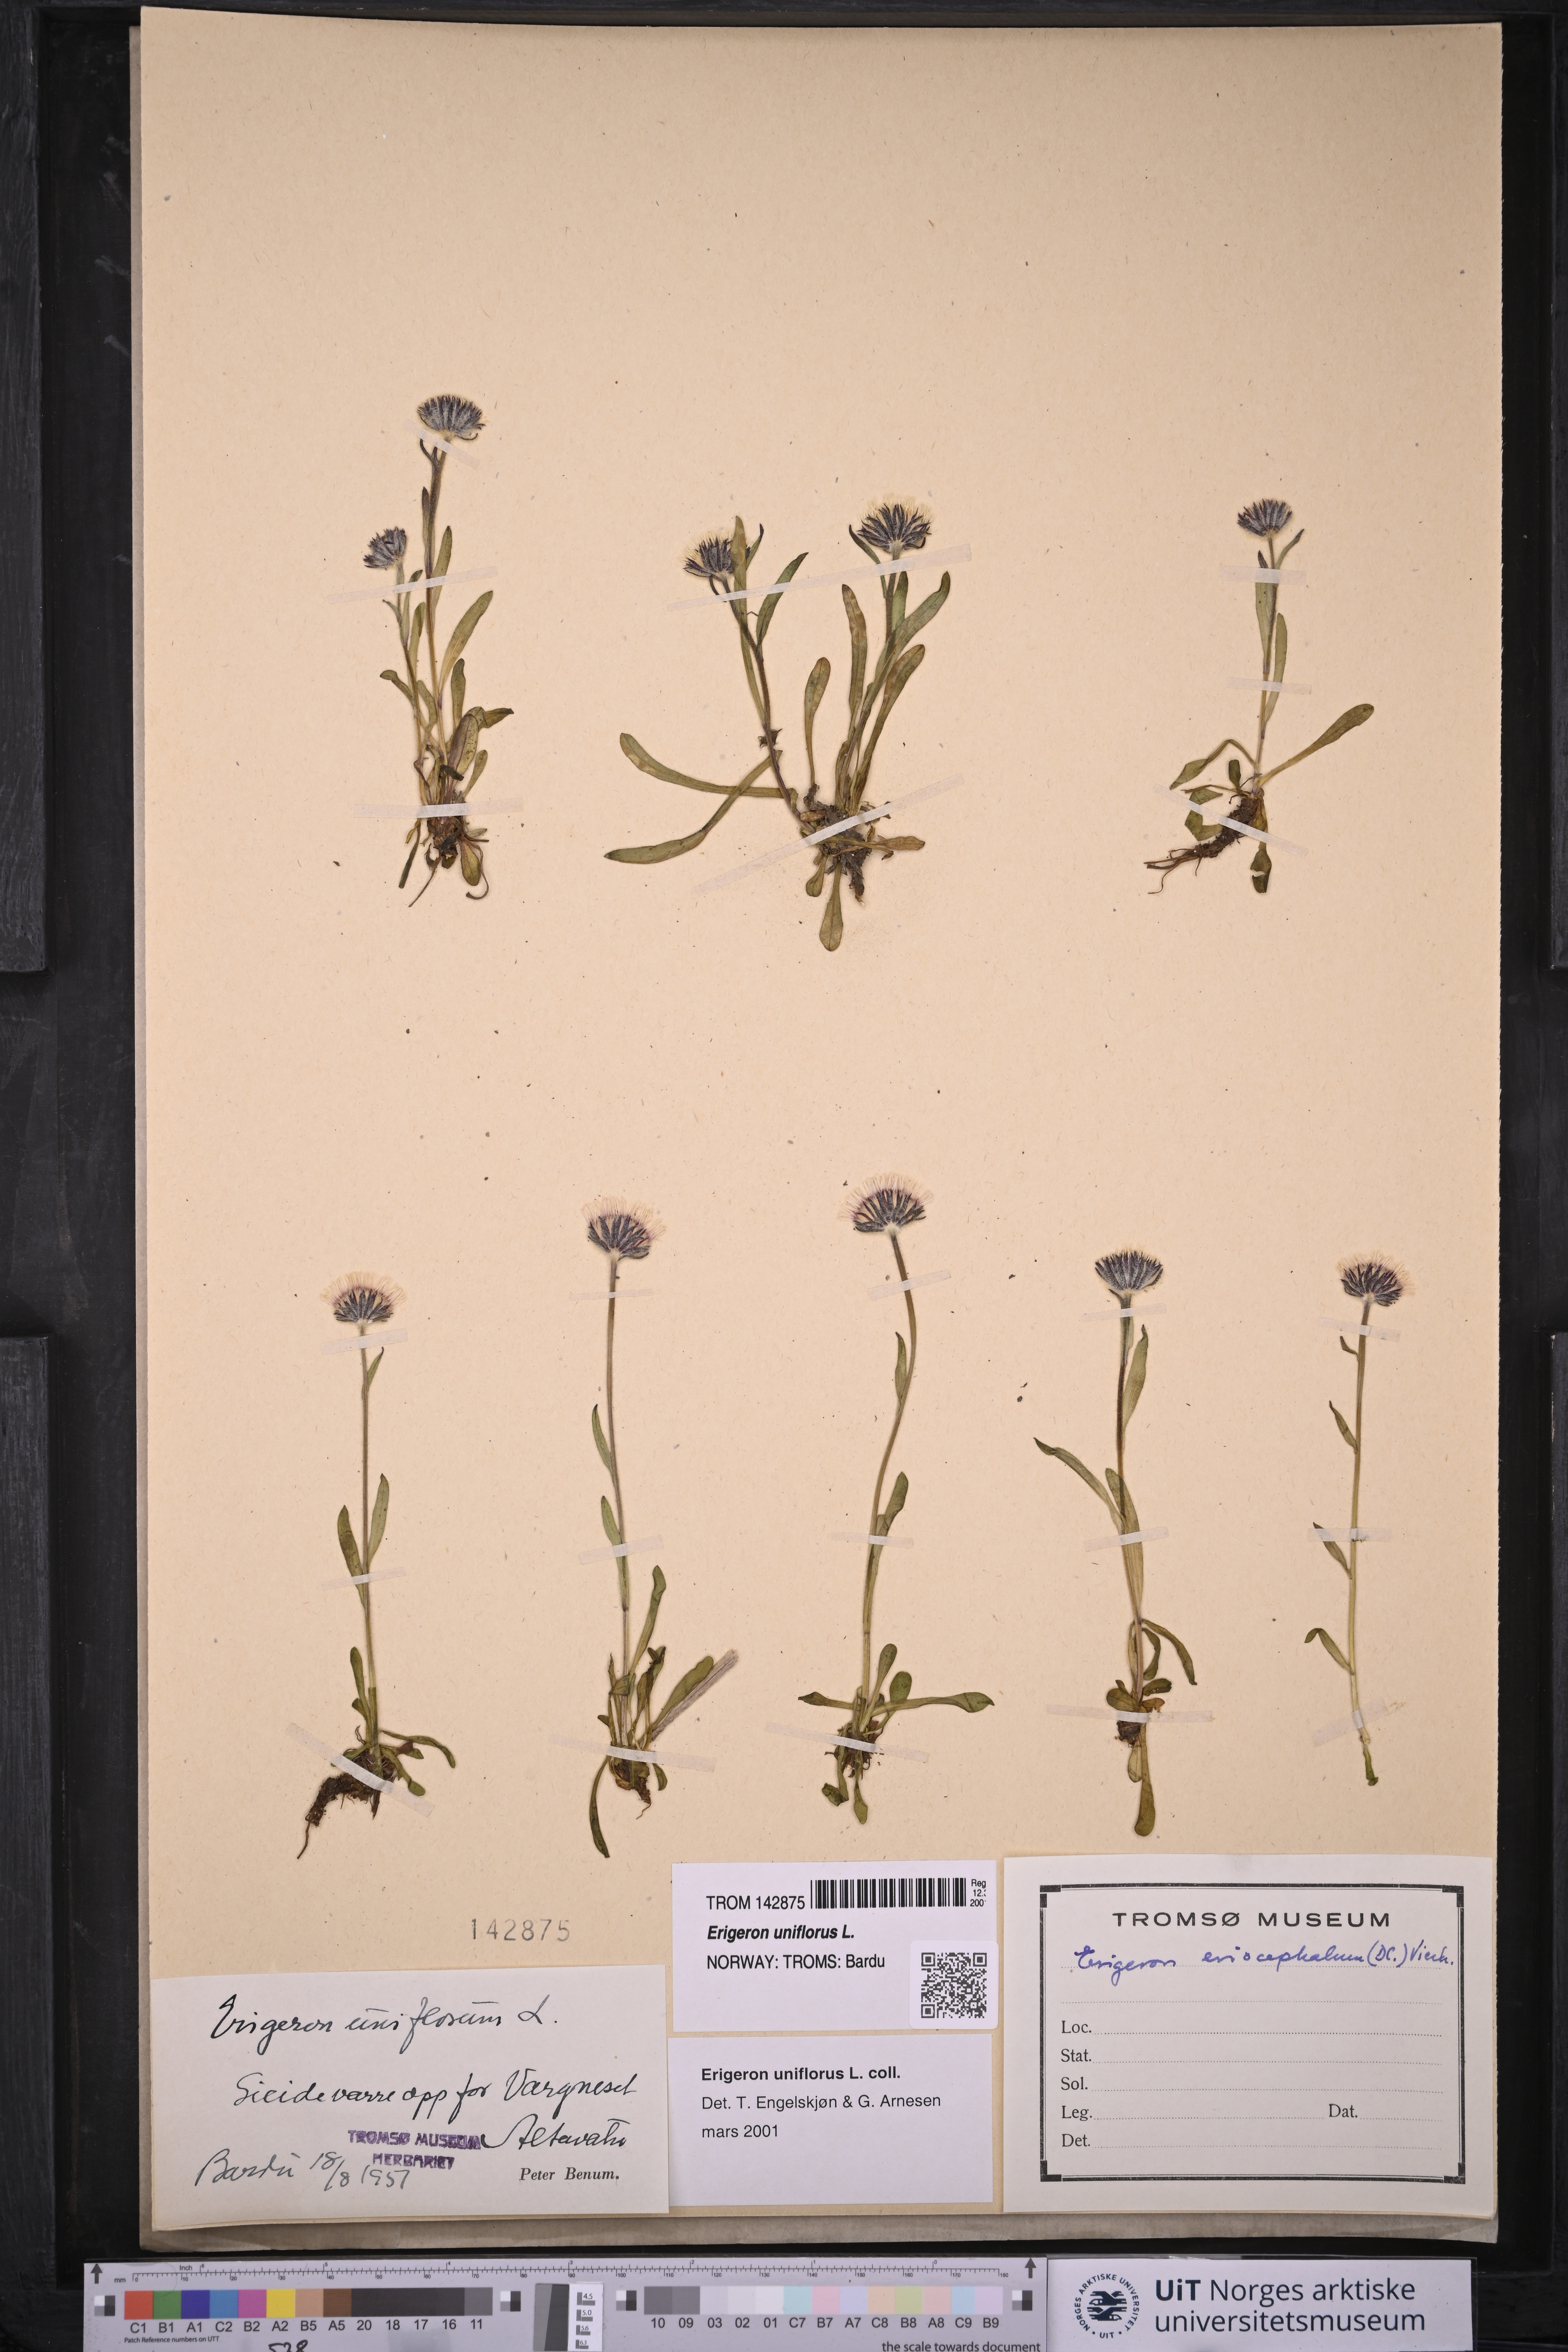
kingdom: Plantae
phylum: Tracheophyta
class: Magnoliopsida
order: Asterales
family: Asteraceae
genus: Erigeron
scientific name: Erigeron uniflorus
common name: Northern daisy
